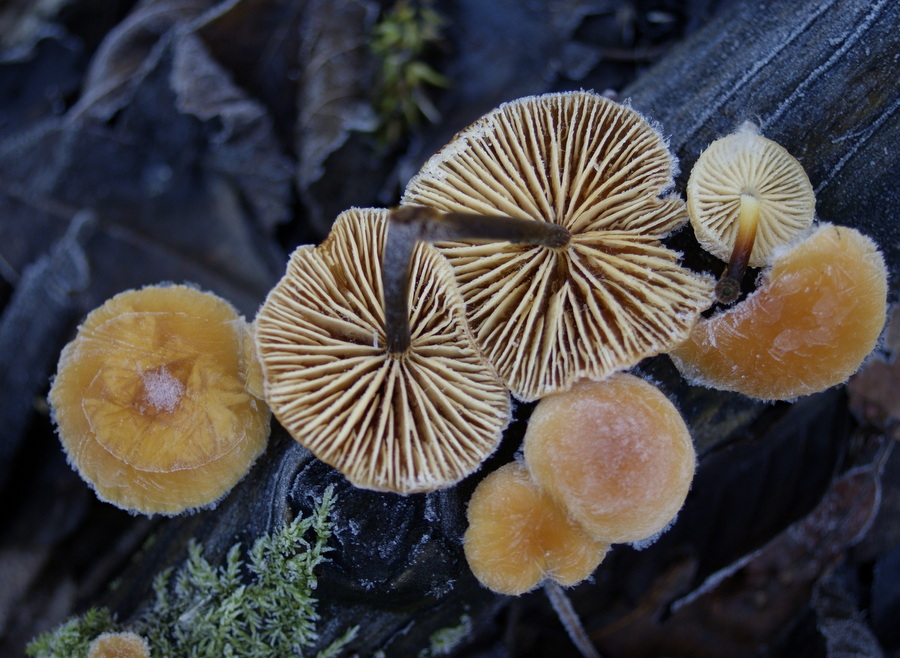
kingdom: Fungi
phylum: Basidiomycota
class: Agaricomycetes
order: Agaricales
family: Physalacriaceae
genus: Flammulina
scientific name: Flammulina elastica
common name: pile-fløjlsfod
